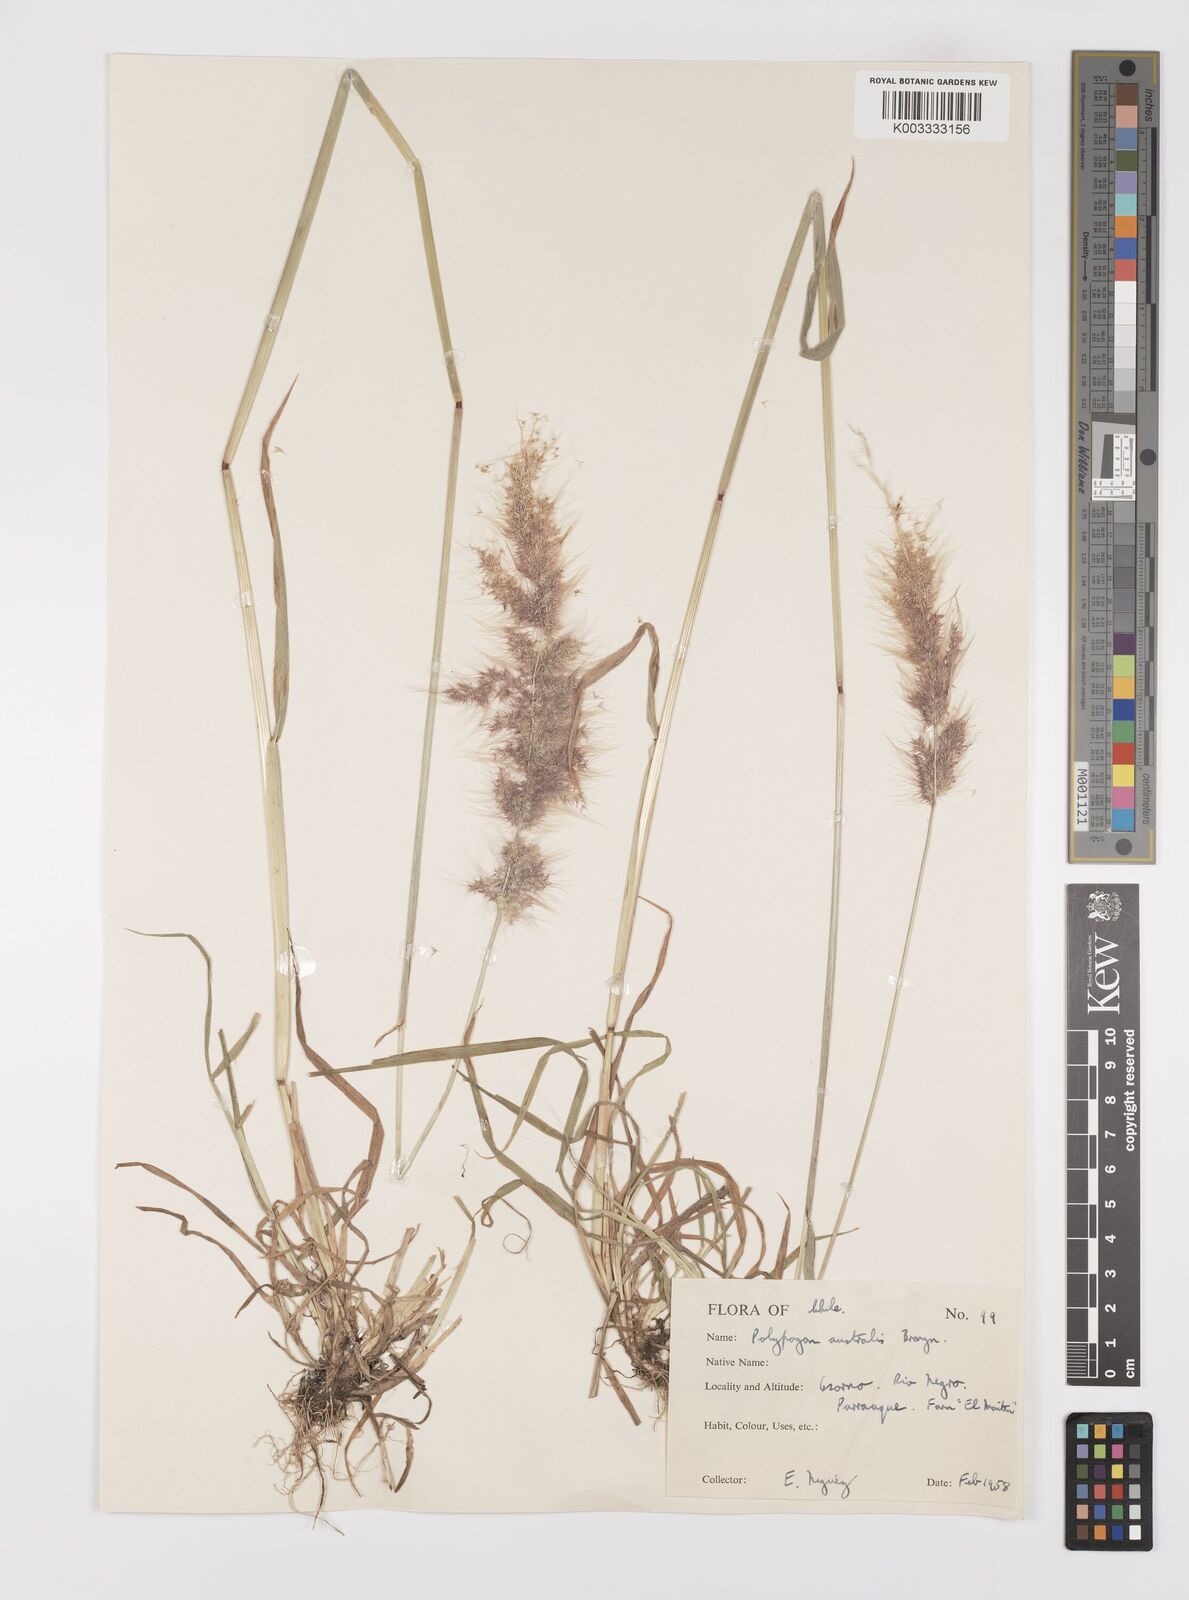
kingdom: Plantae
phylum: Tracheophyta
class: Liliopsida
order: Poales
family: Poaceae
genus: Polypogon
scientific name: Polypogon australis
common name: Chilean rabbitsfoot grass
